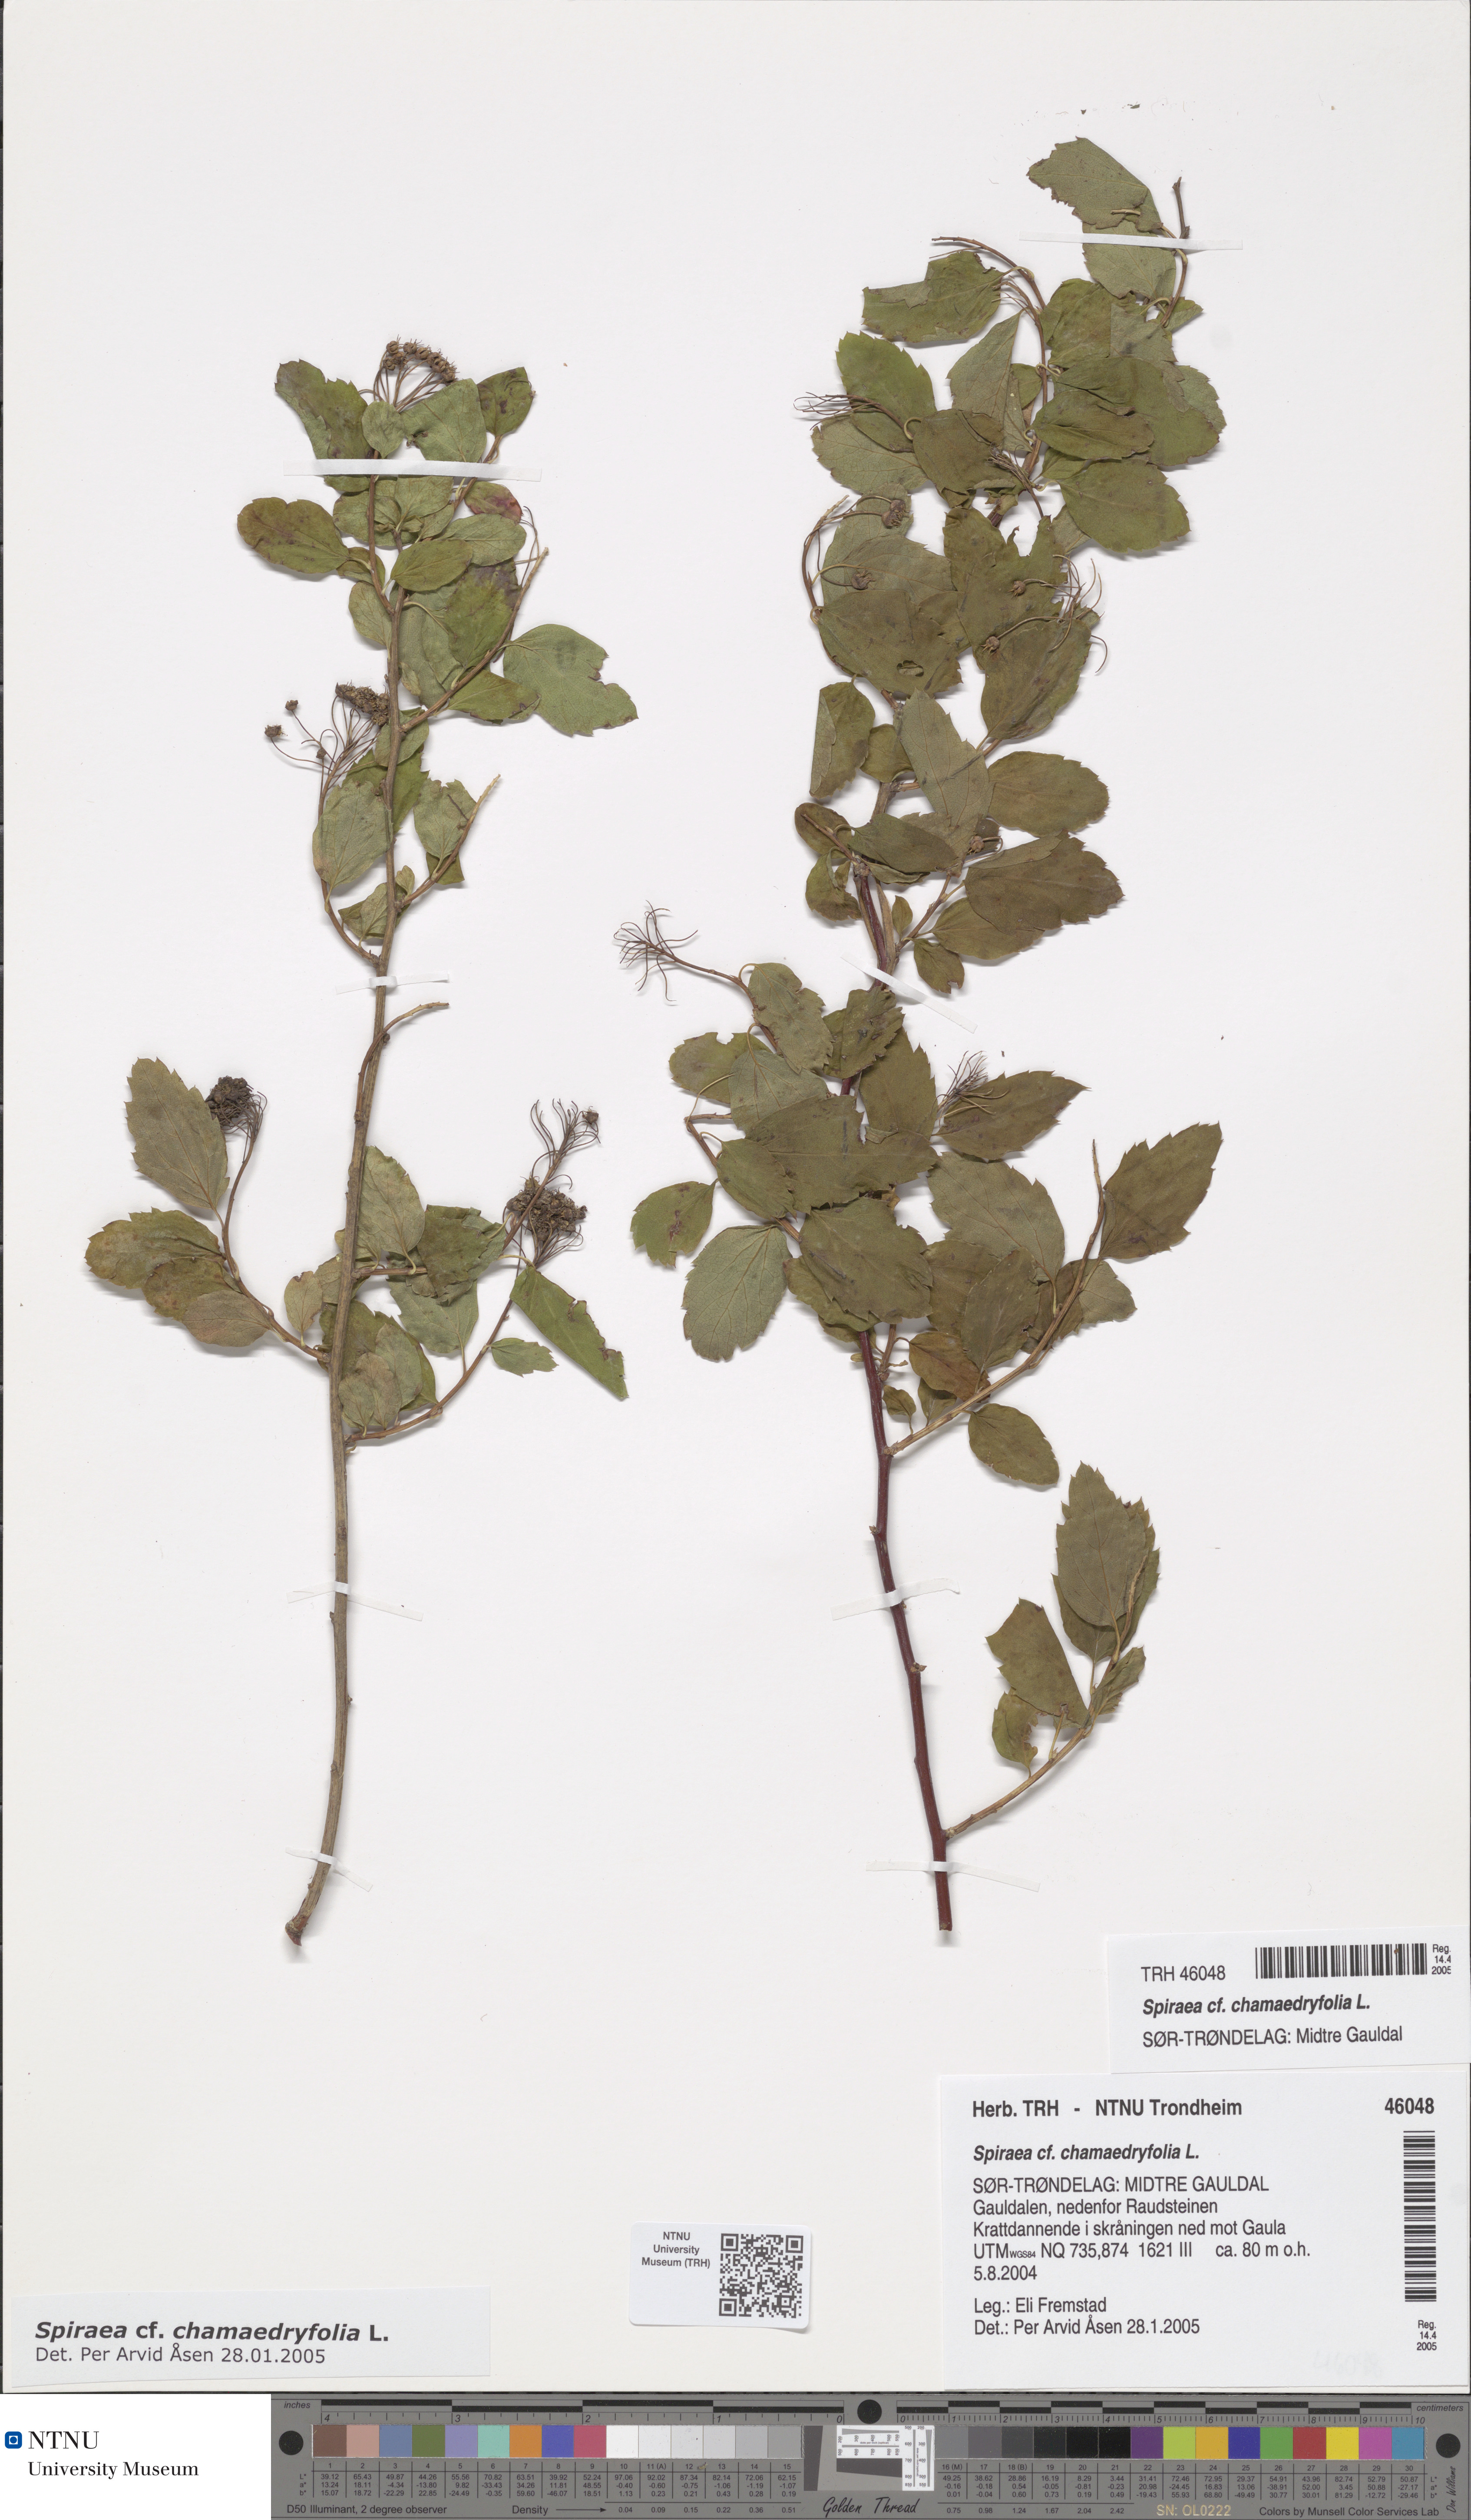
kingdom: Plantae
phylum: Tracheophyta
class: Magnoliopsida
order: Rosales
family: Rosaceae
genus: Spiraea
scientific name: Spiraea chamaedryfolia
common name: Elm-leaved spiraea
